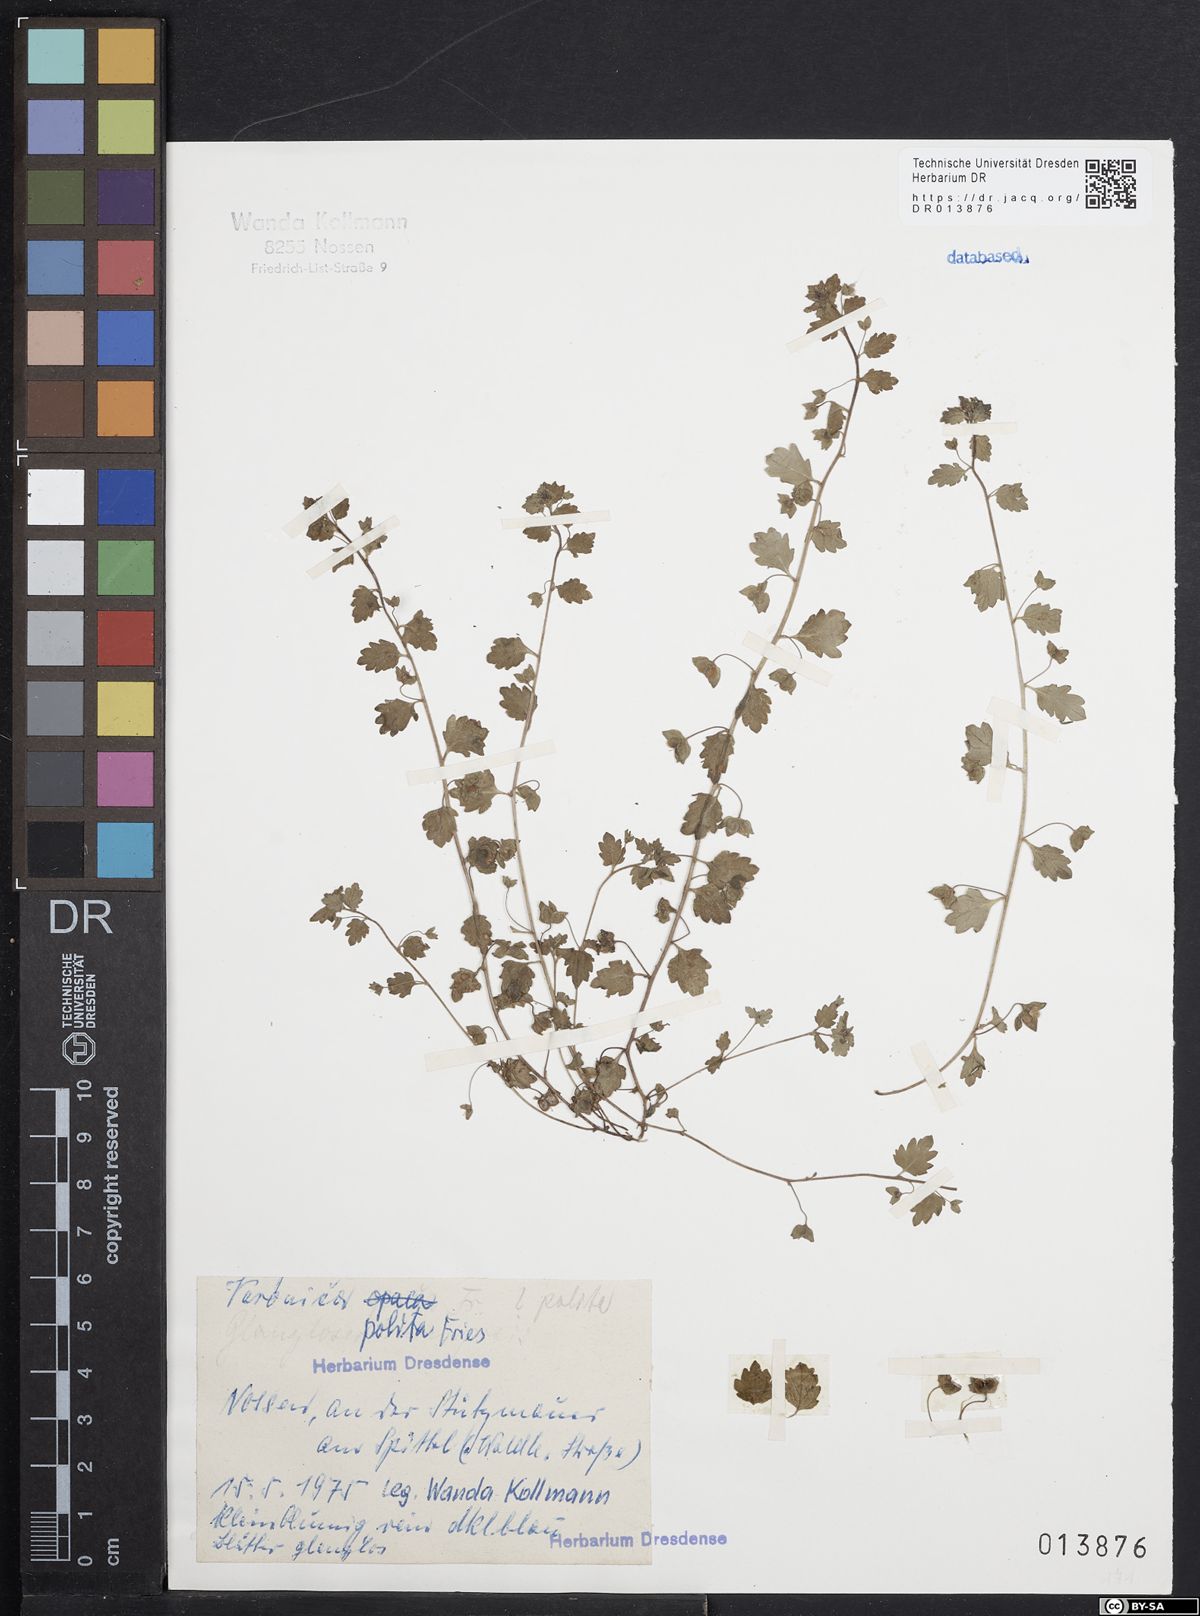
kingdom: Plantae
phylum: Tracheophyta
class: Magnoliopsida
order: Lamiales
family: Plantaginaceae
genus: Veronica
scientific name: Veronica polita
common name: Grey field-speedwell
